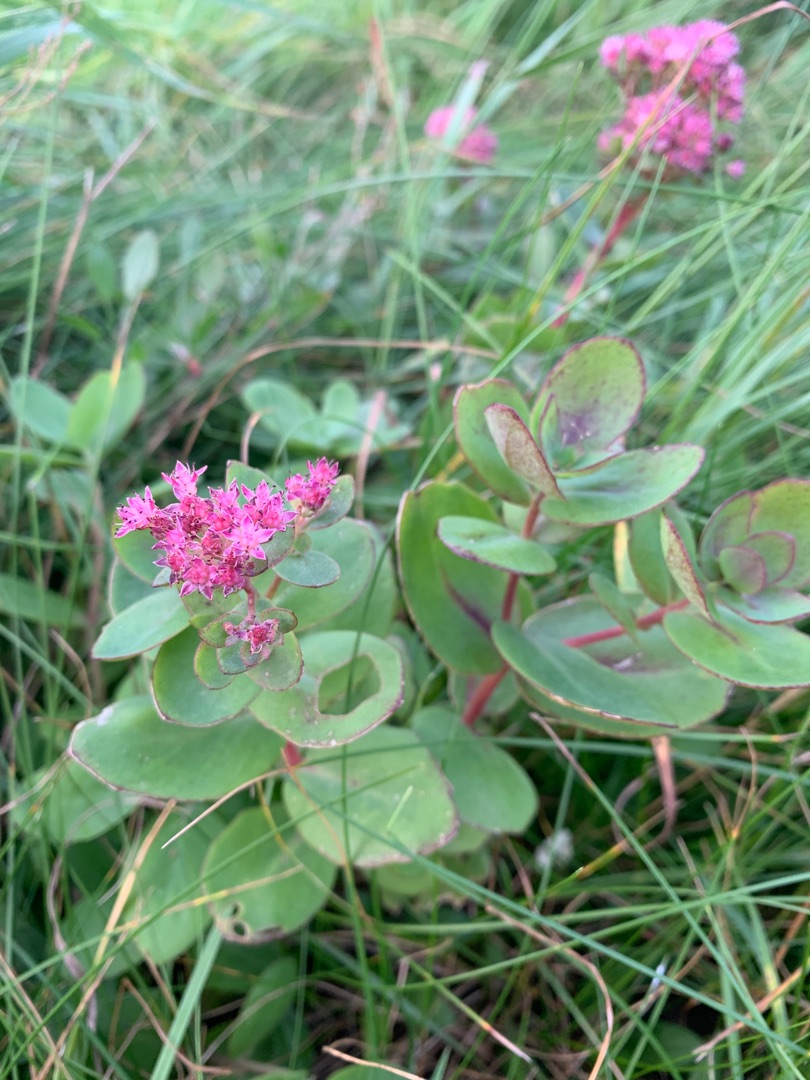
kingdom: Plantae
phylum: Tracheophyta
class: Magnoliopsida
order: Saxifragales
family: Crassulaceae
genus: Hylotelephium
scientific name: Hylotelephium telephium
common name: Sankthansurt
